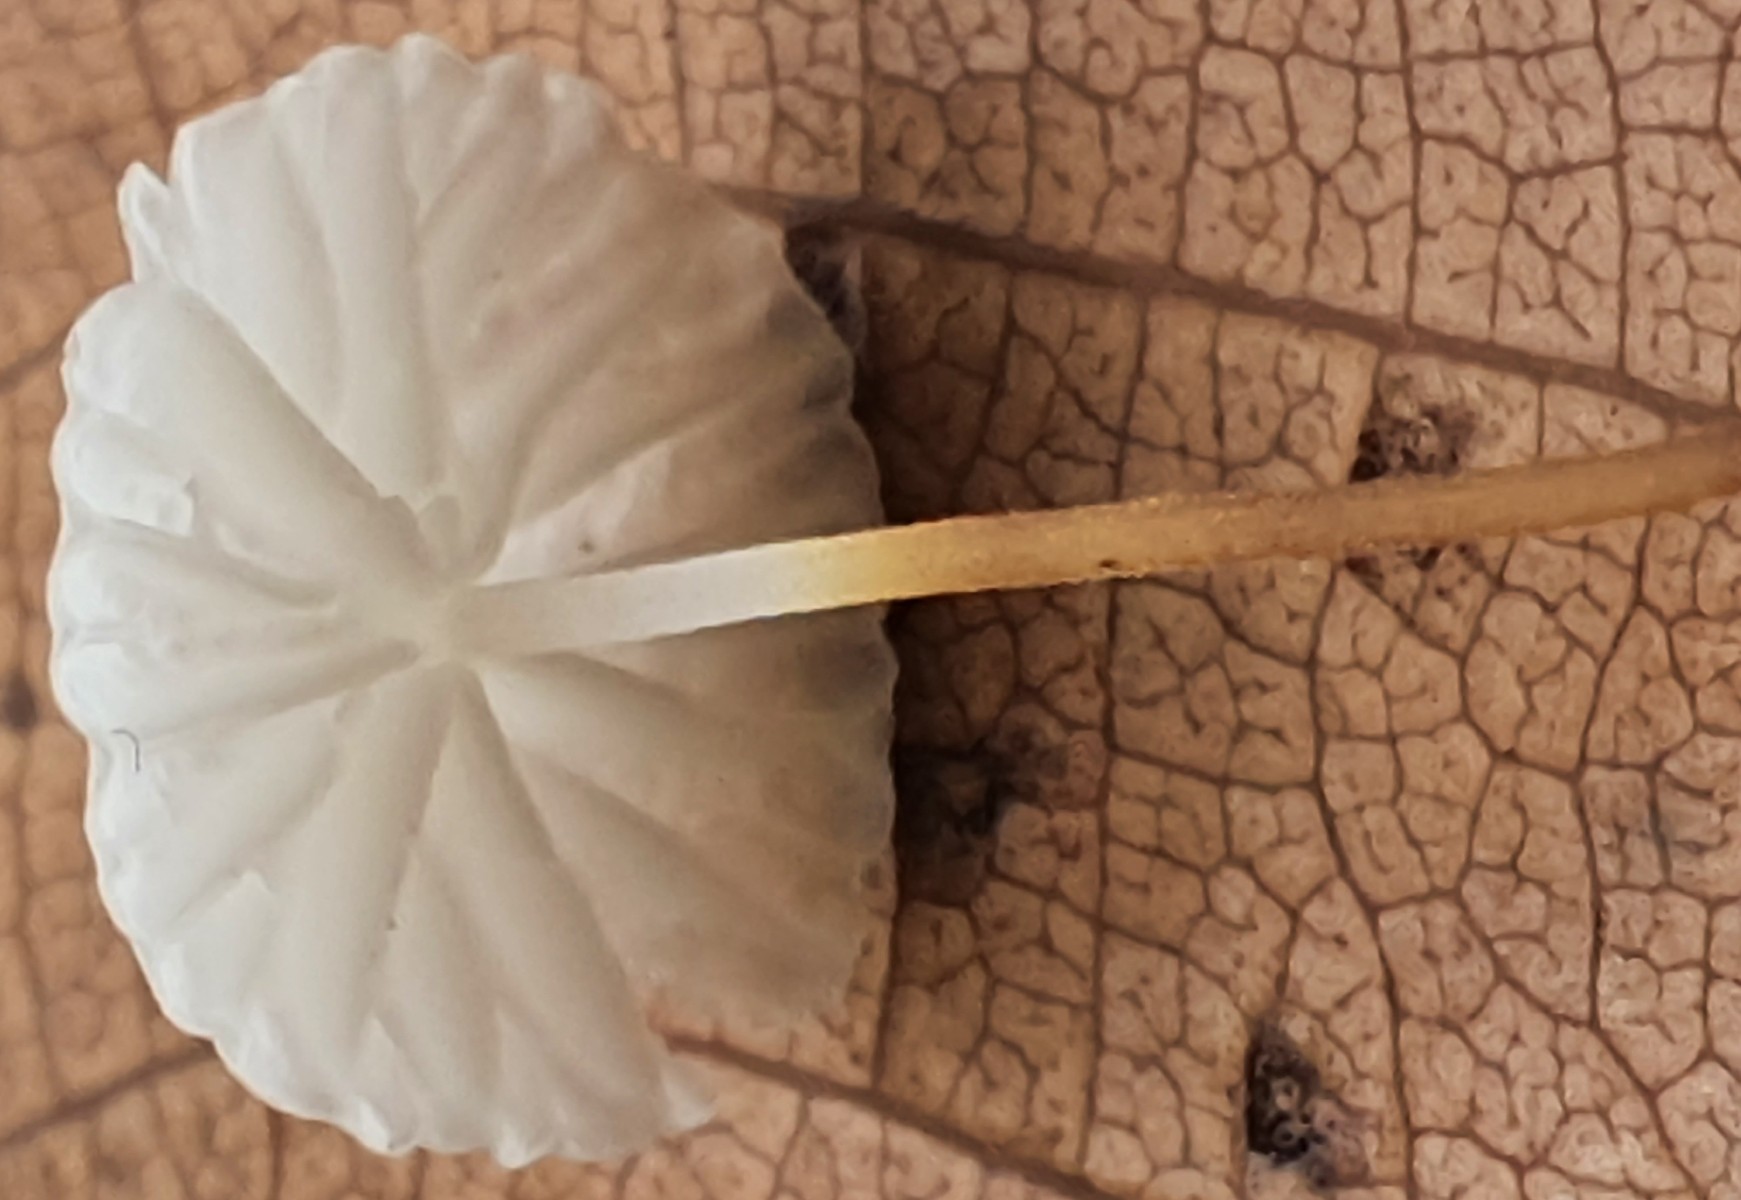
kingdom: Fungi
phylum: Basidiomycota
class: Agaricomycetes
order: Agaricales
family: Physalacriaceae
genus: Rhizomarasmius
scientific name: Rhizomarasmius setosus
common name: bøgeblads-bruskhat
